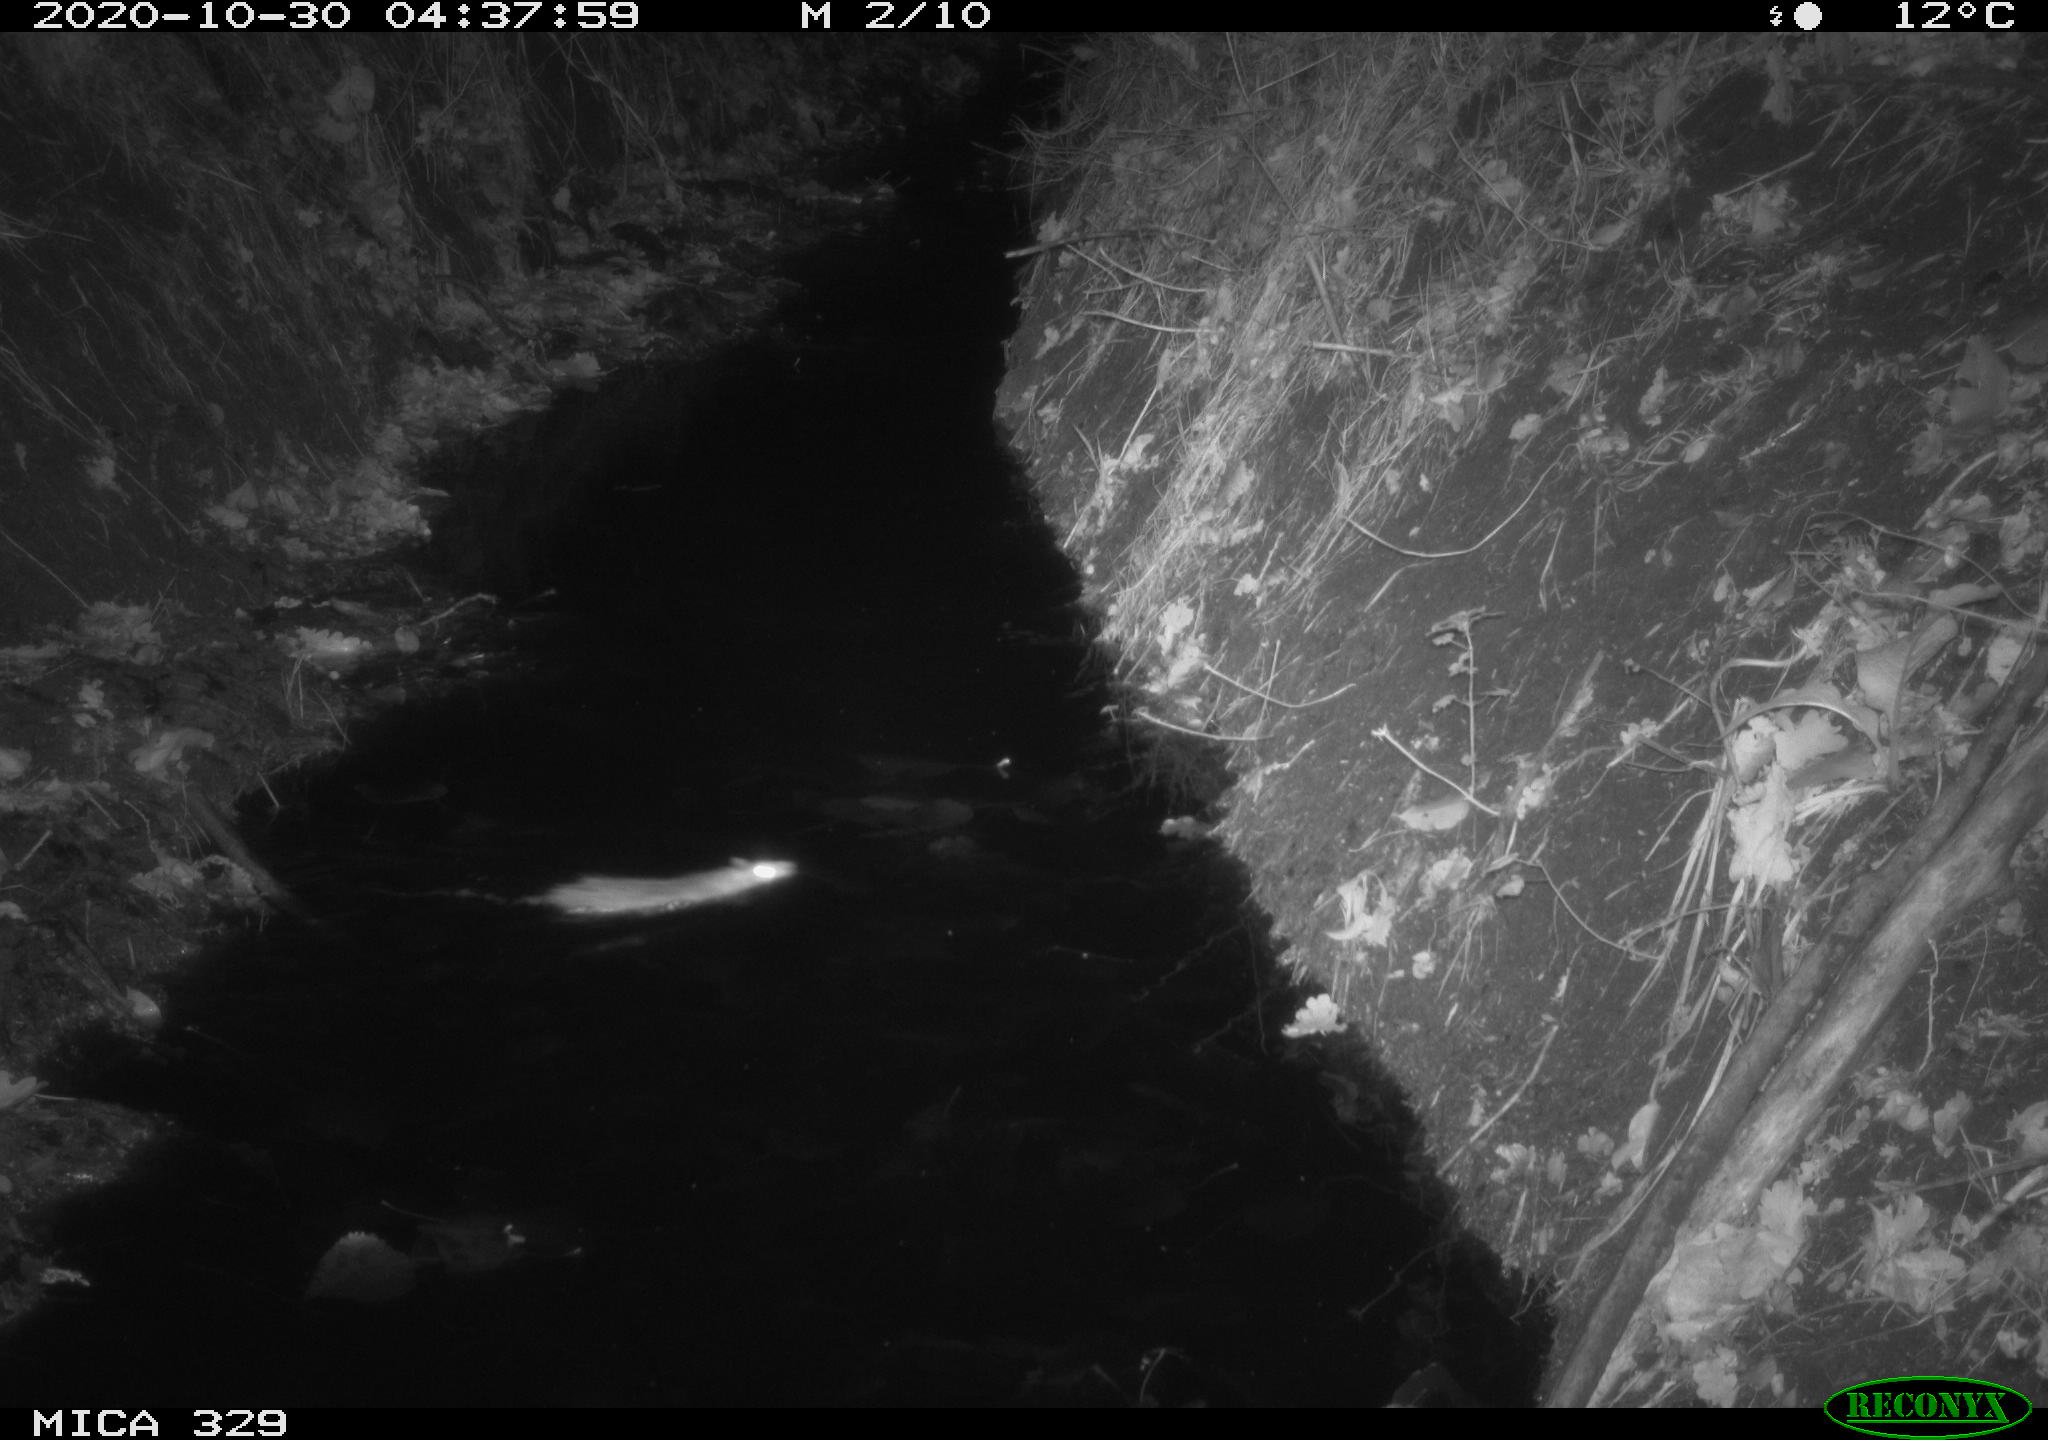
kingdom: Animalia
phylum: Chordata
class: Mammalia
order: Rodentia
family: Muridae
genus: Rattus
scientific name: Rattus norvegicus
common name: Brown rat
